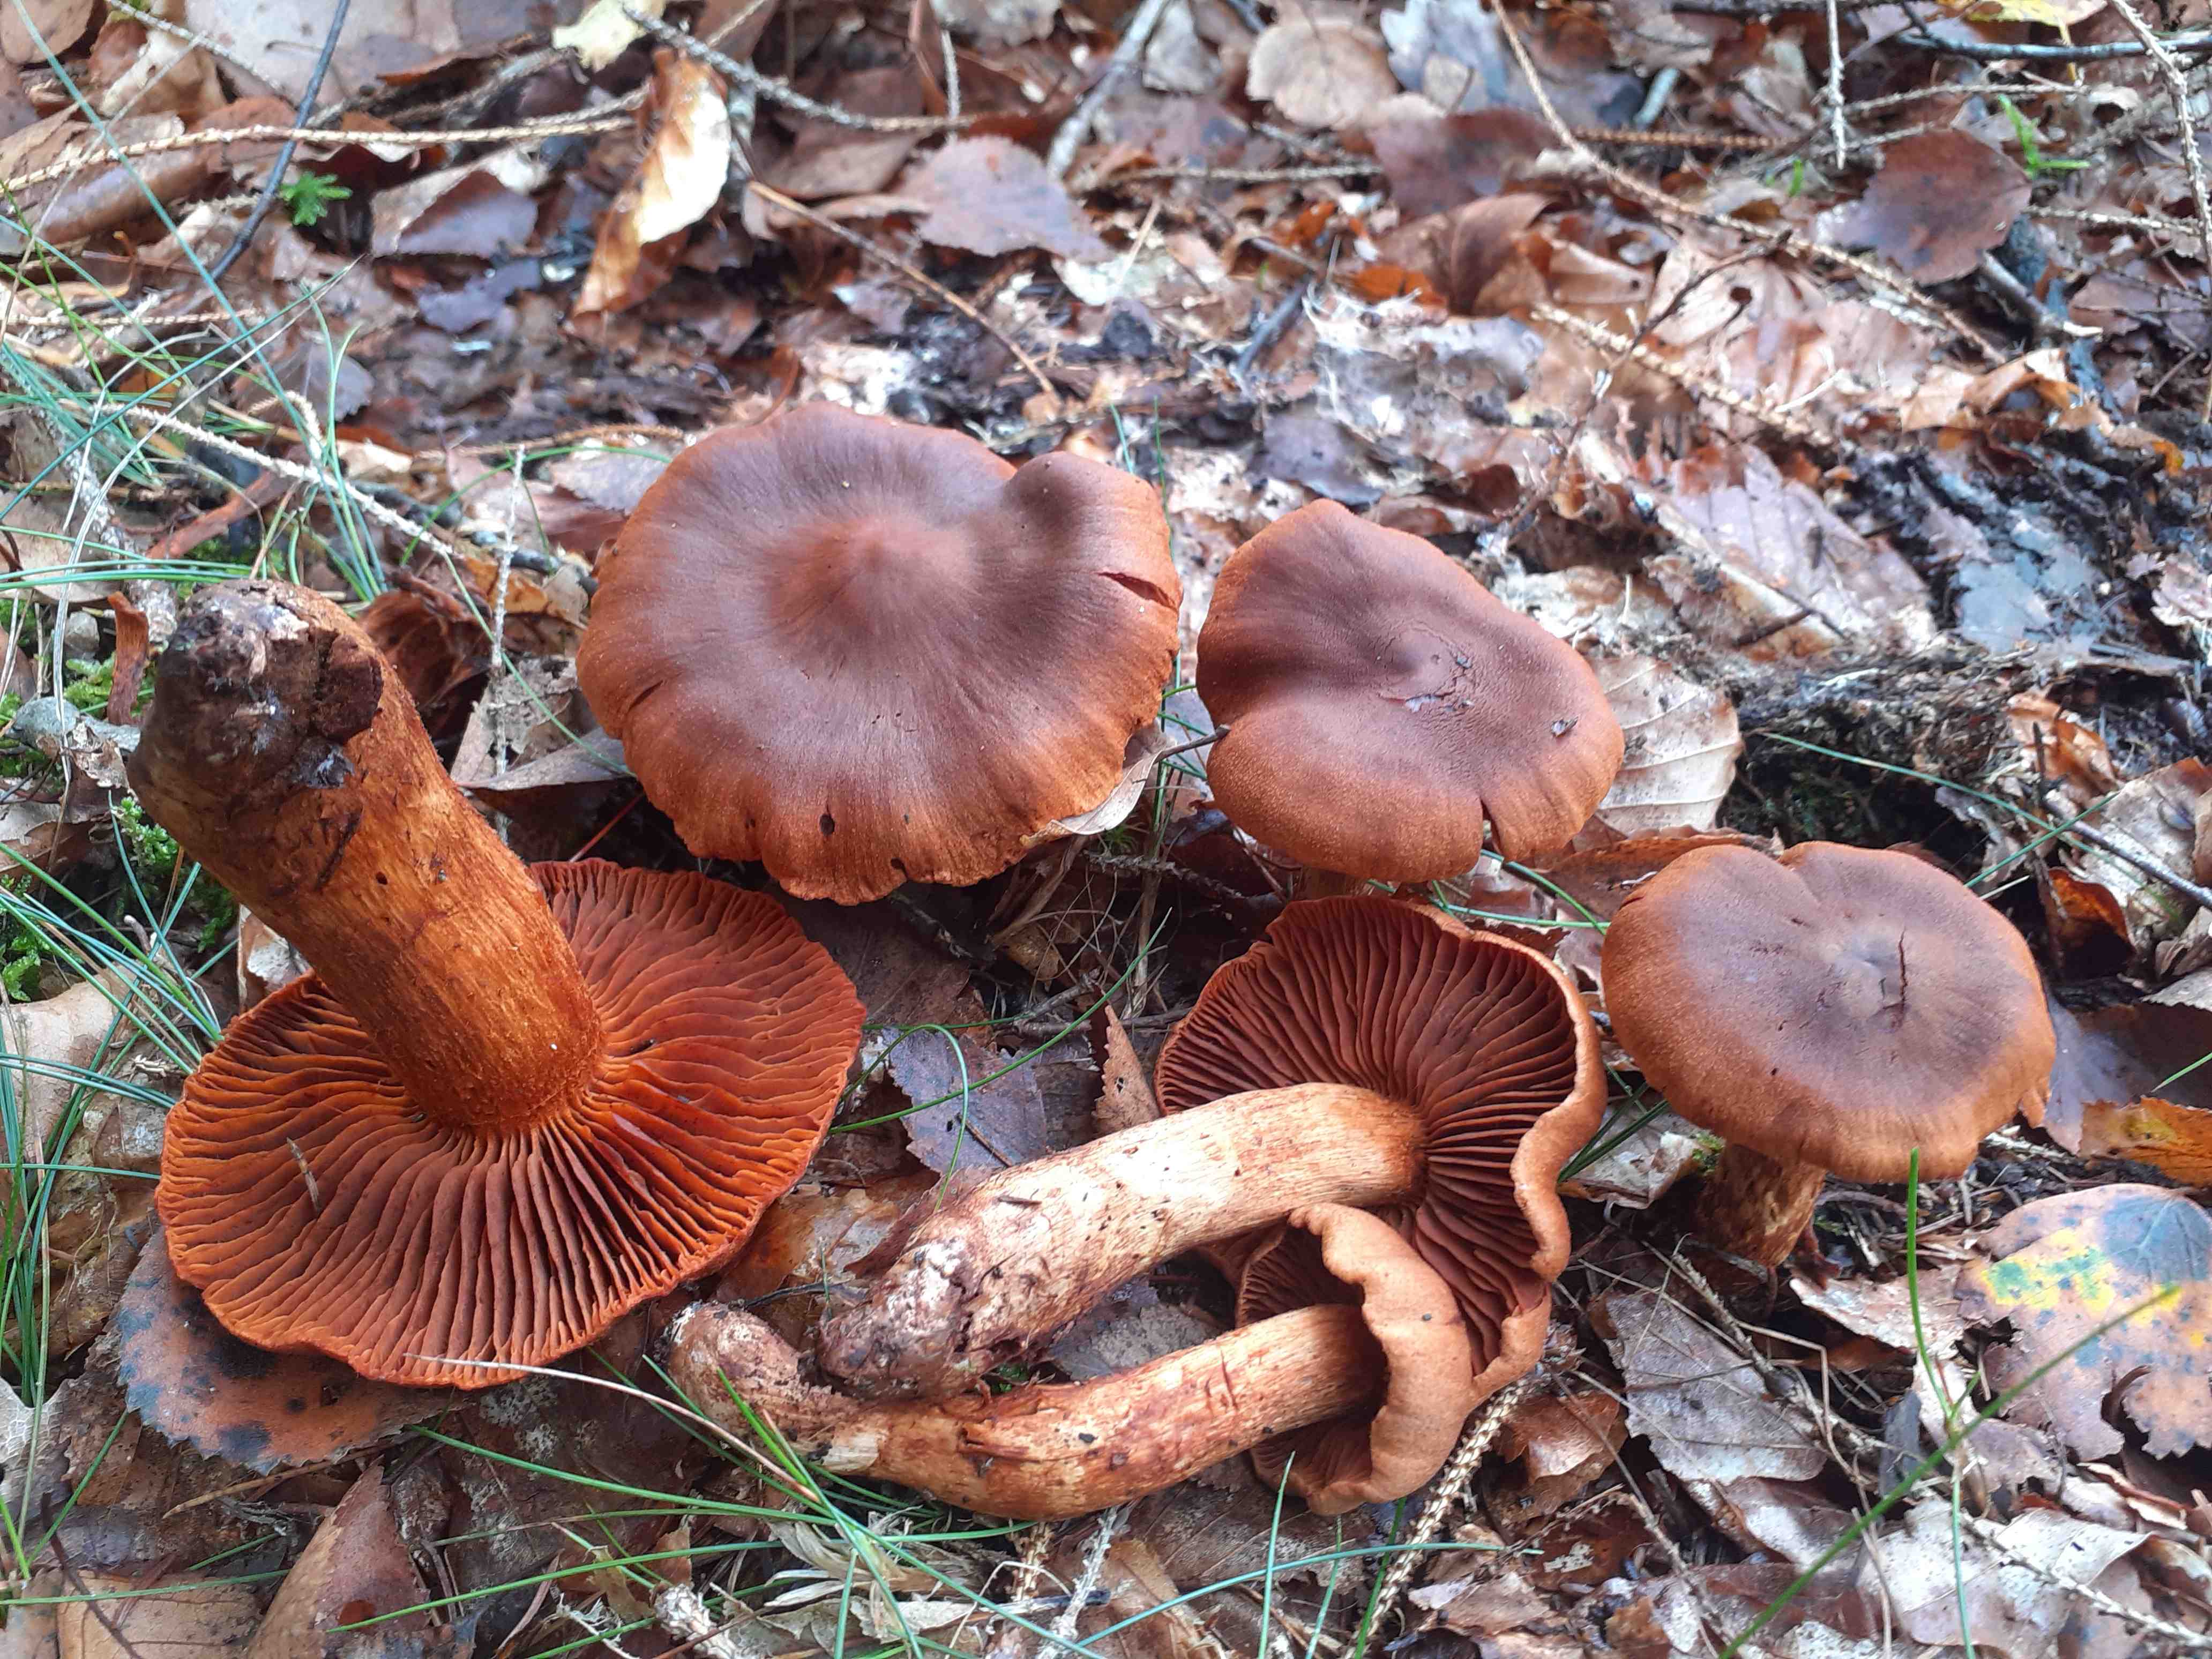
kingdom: Fungi
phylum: Basidiomycota
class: Agaricomycetes
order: Agaricales
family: Cortinariaceae
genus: Cortinarius
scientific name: Cortinarius rubellus
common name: puklet gift-slørhat
